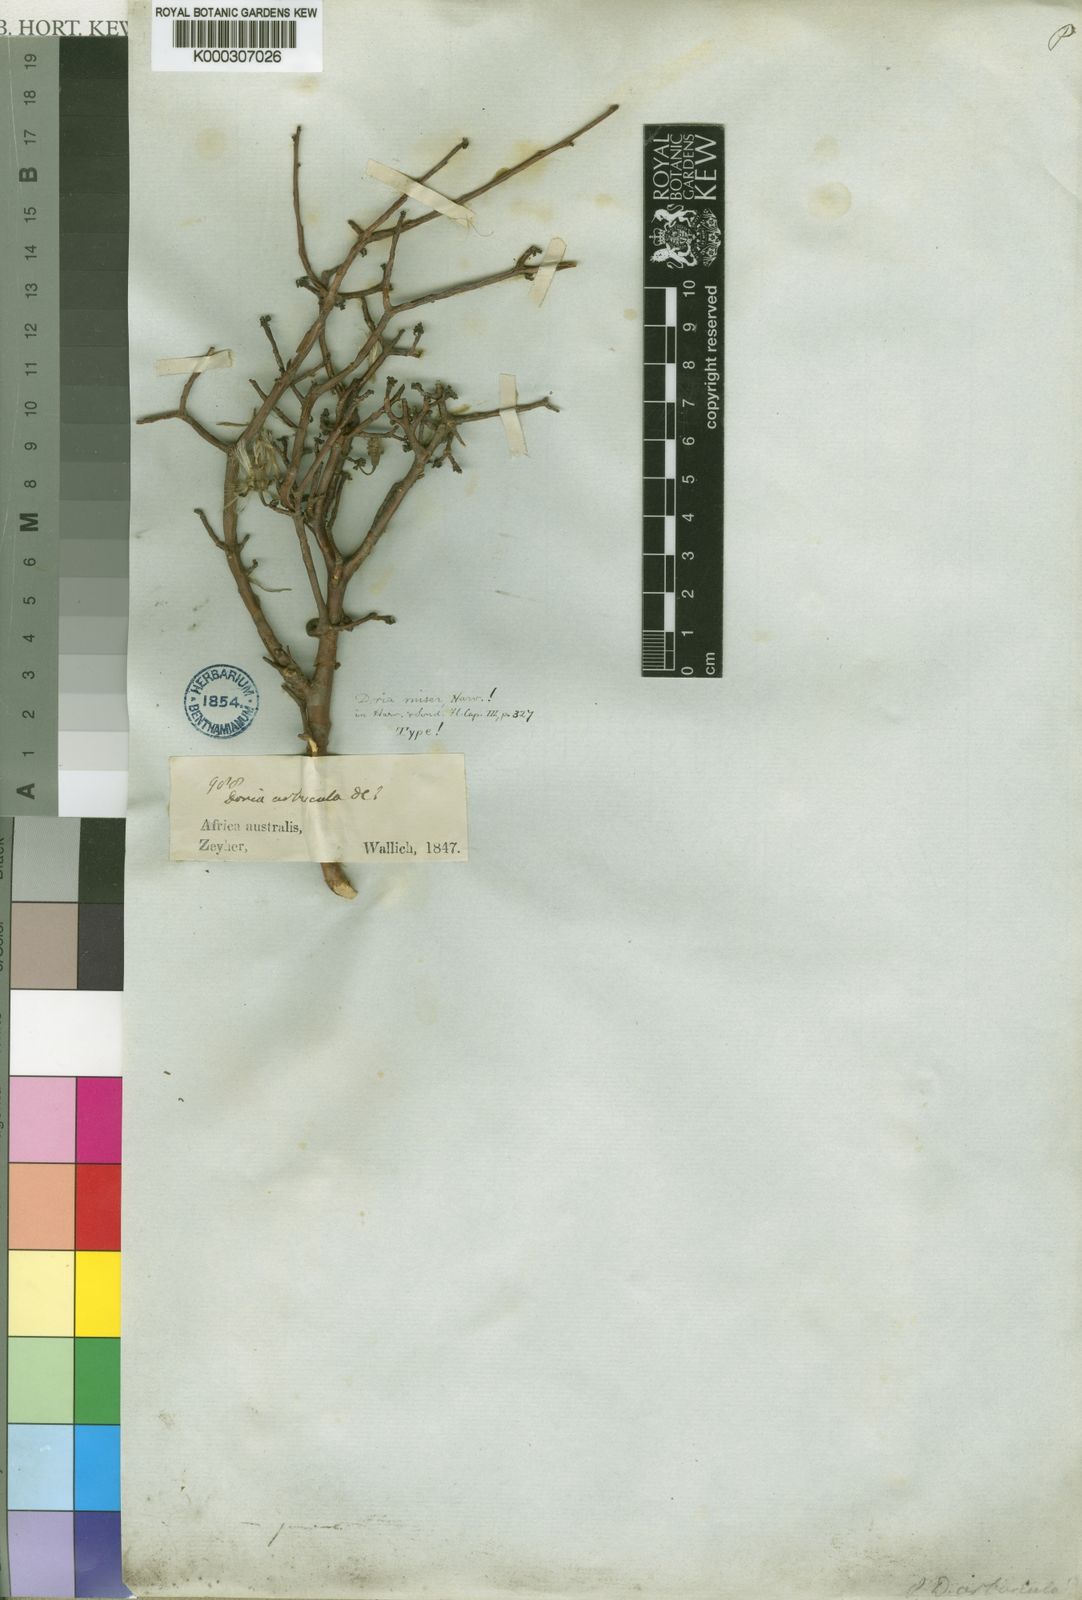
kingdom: Plantae
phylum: Tracheophyta
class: Magnoliopsida
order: Asterales
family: Asteraceae
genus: Othonna
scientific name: Othonna
